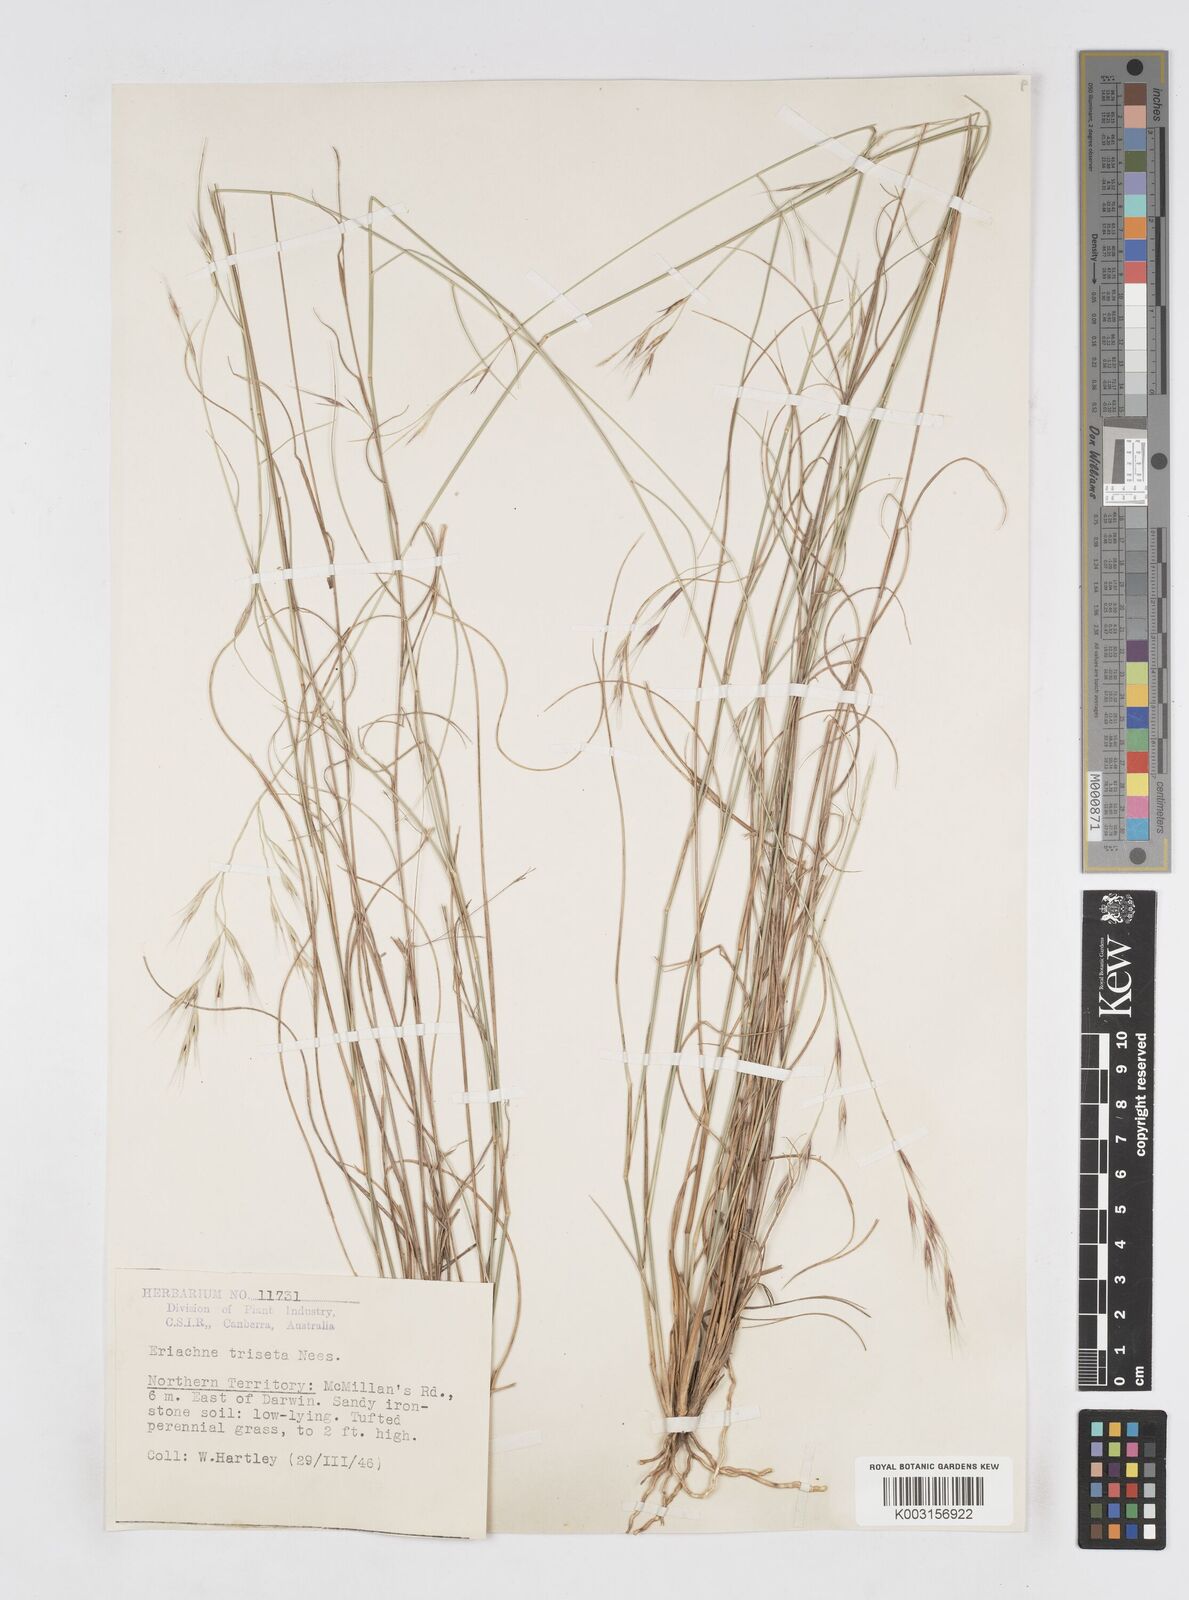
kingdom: Plantae
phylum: Tracheophyta
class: Liliopsida
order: Poales
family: Poaceae
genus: Eriachne
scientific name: Eriachne triseta
